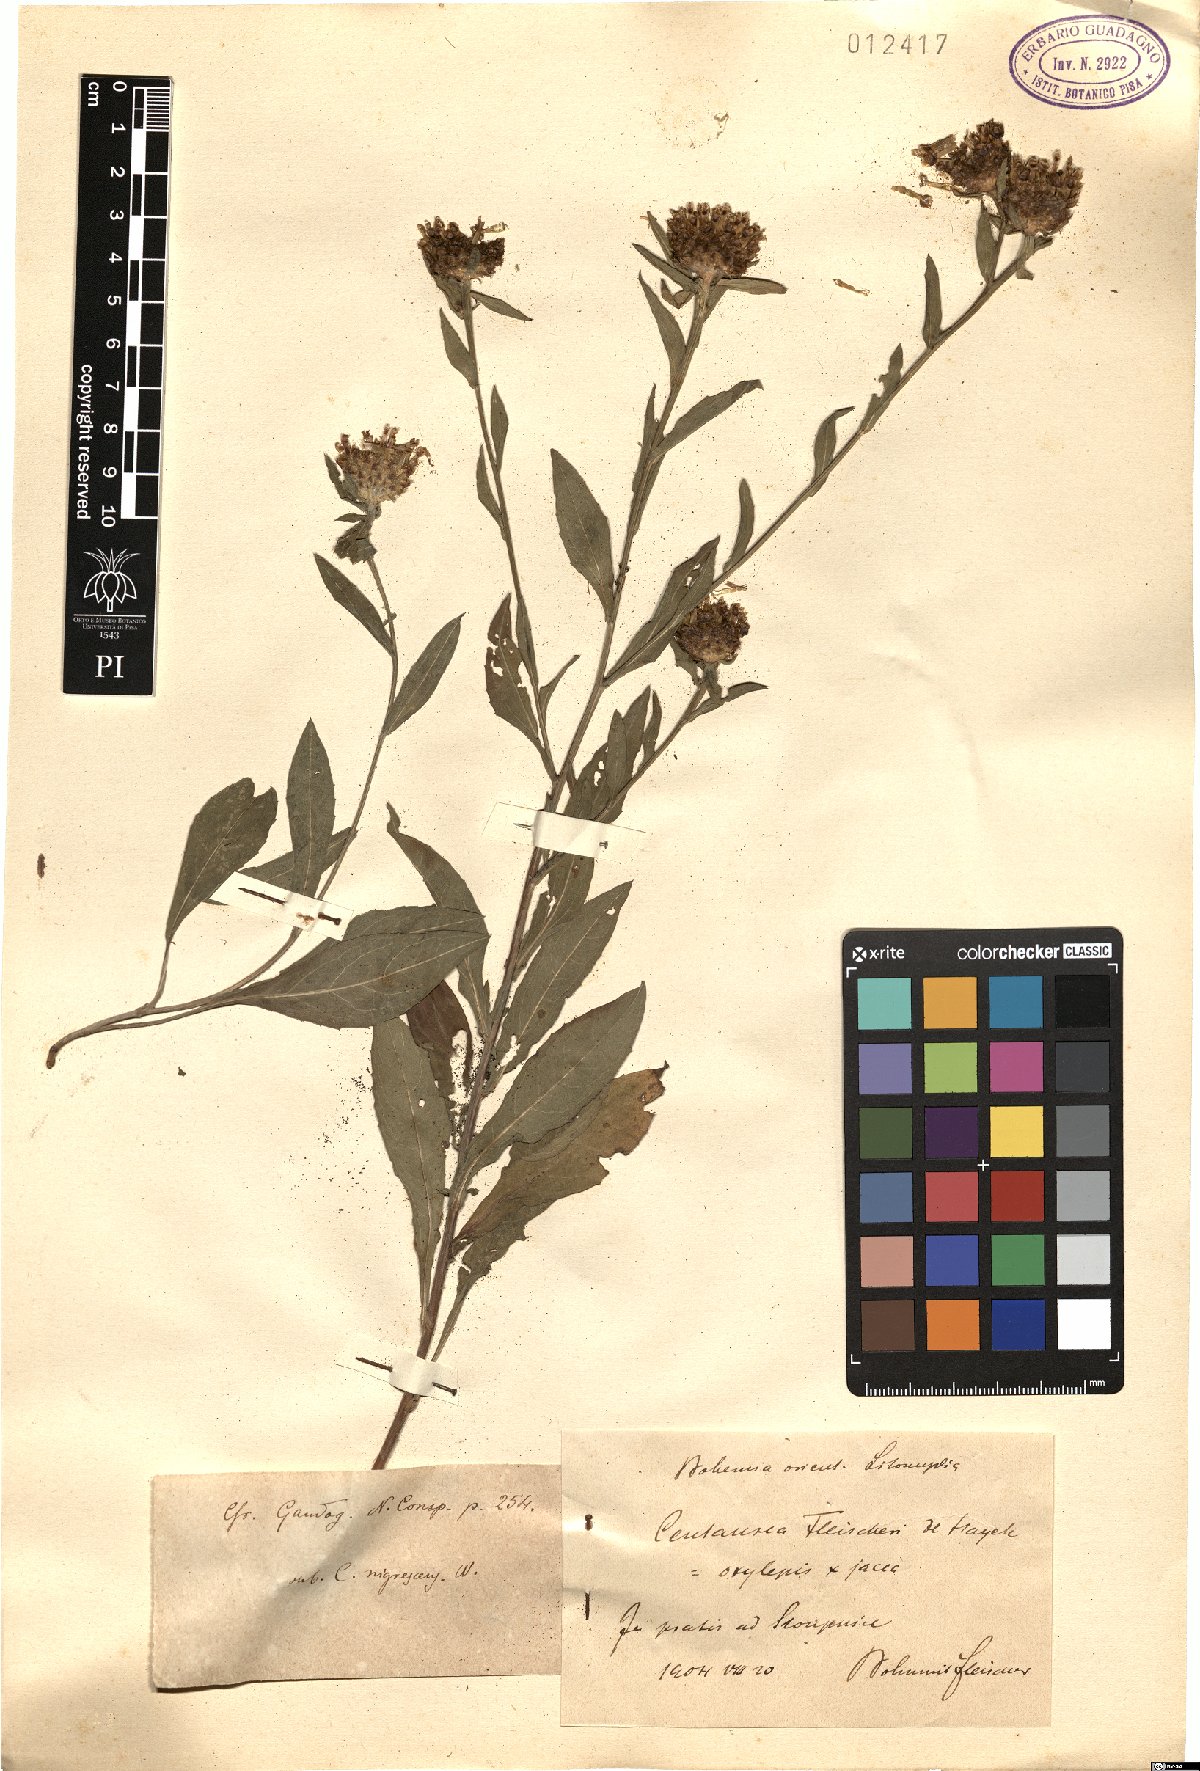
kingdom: Plantae
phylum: Tracheophyta
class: Magnoliopsida
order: Asterales
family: Asteraceae
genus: Centaurea
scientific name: Centaurea fleischeri
